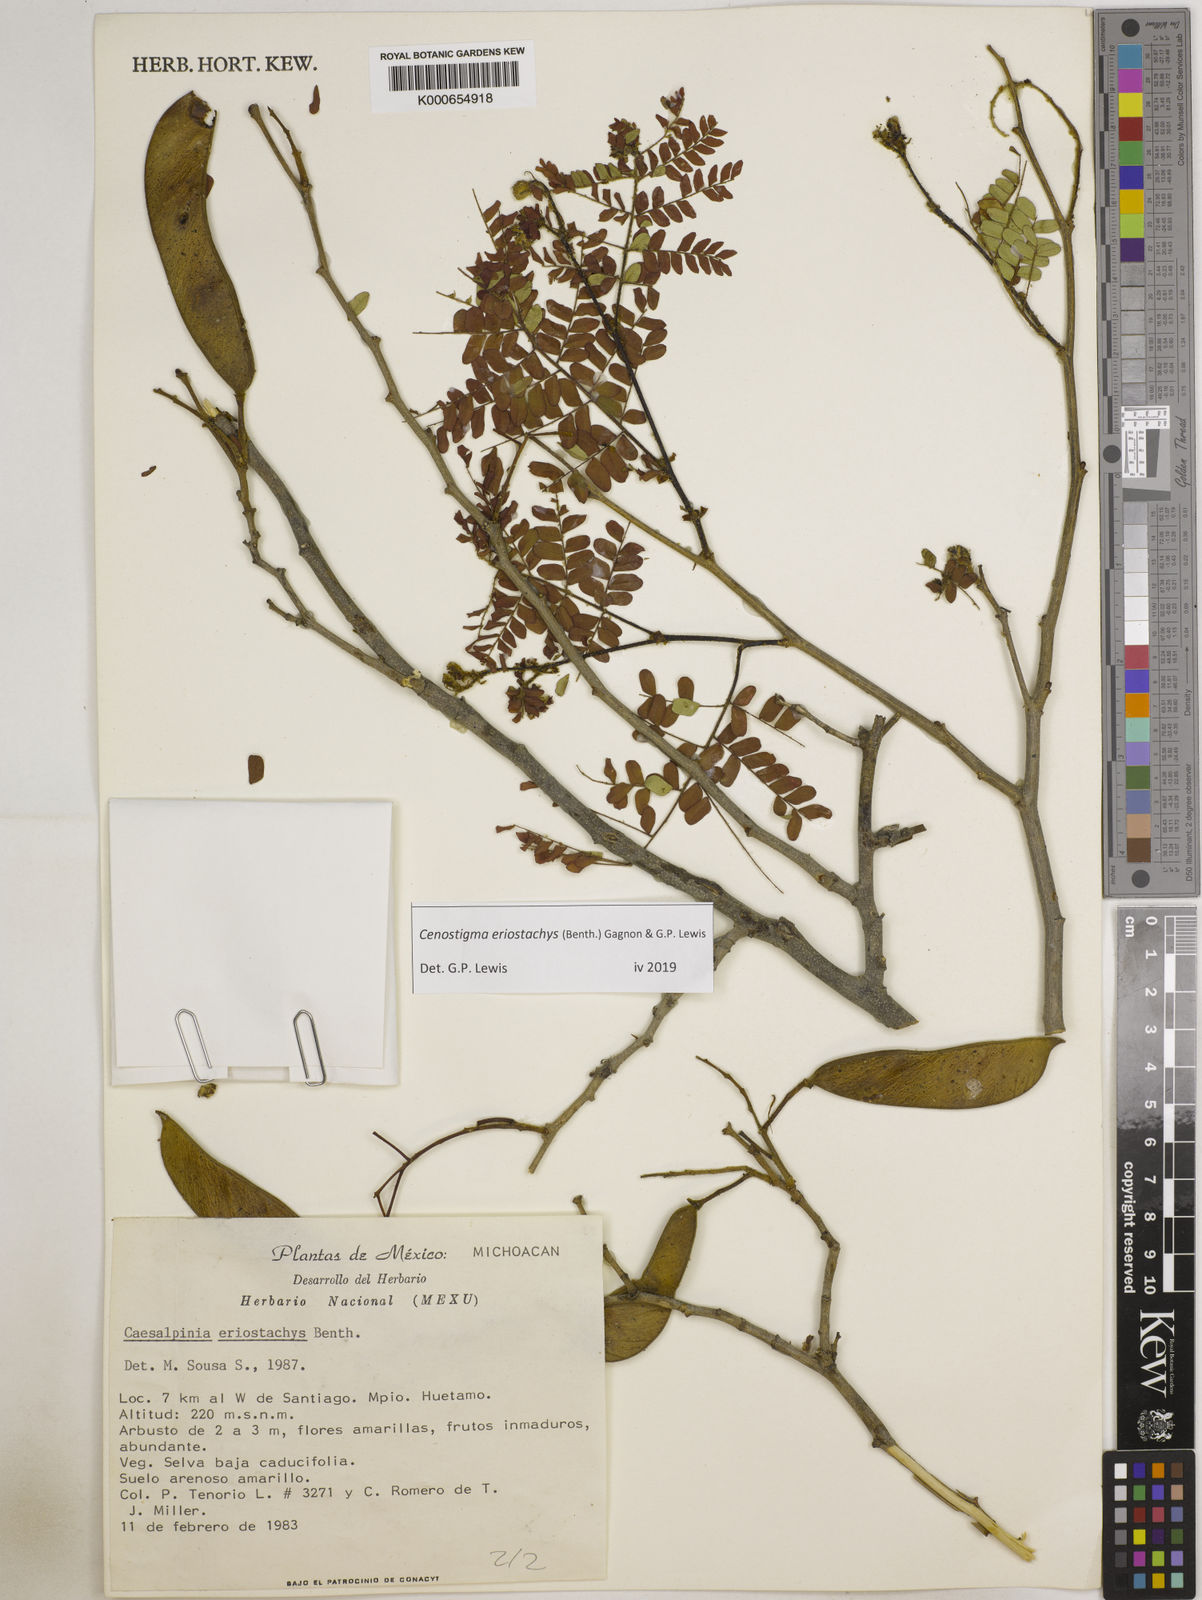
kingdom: Plantae
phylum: Tracheophyta
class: Magnoliopsida
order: Fabales
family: Fabaceae
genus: Cenostigma
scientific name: Cenostigma eriostachys
